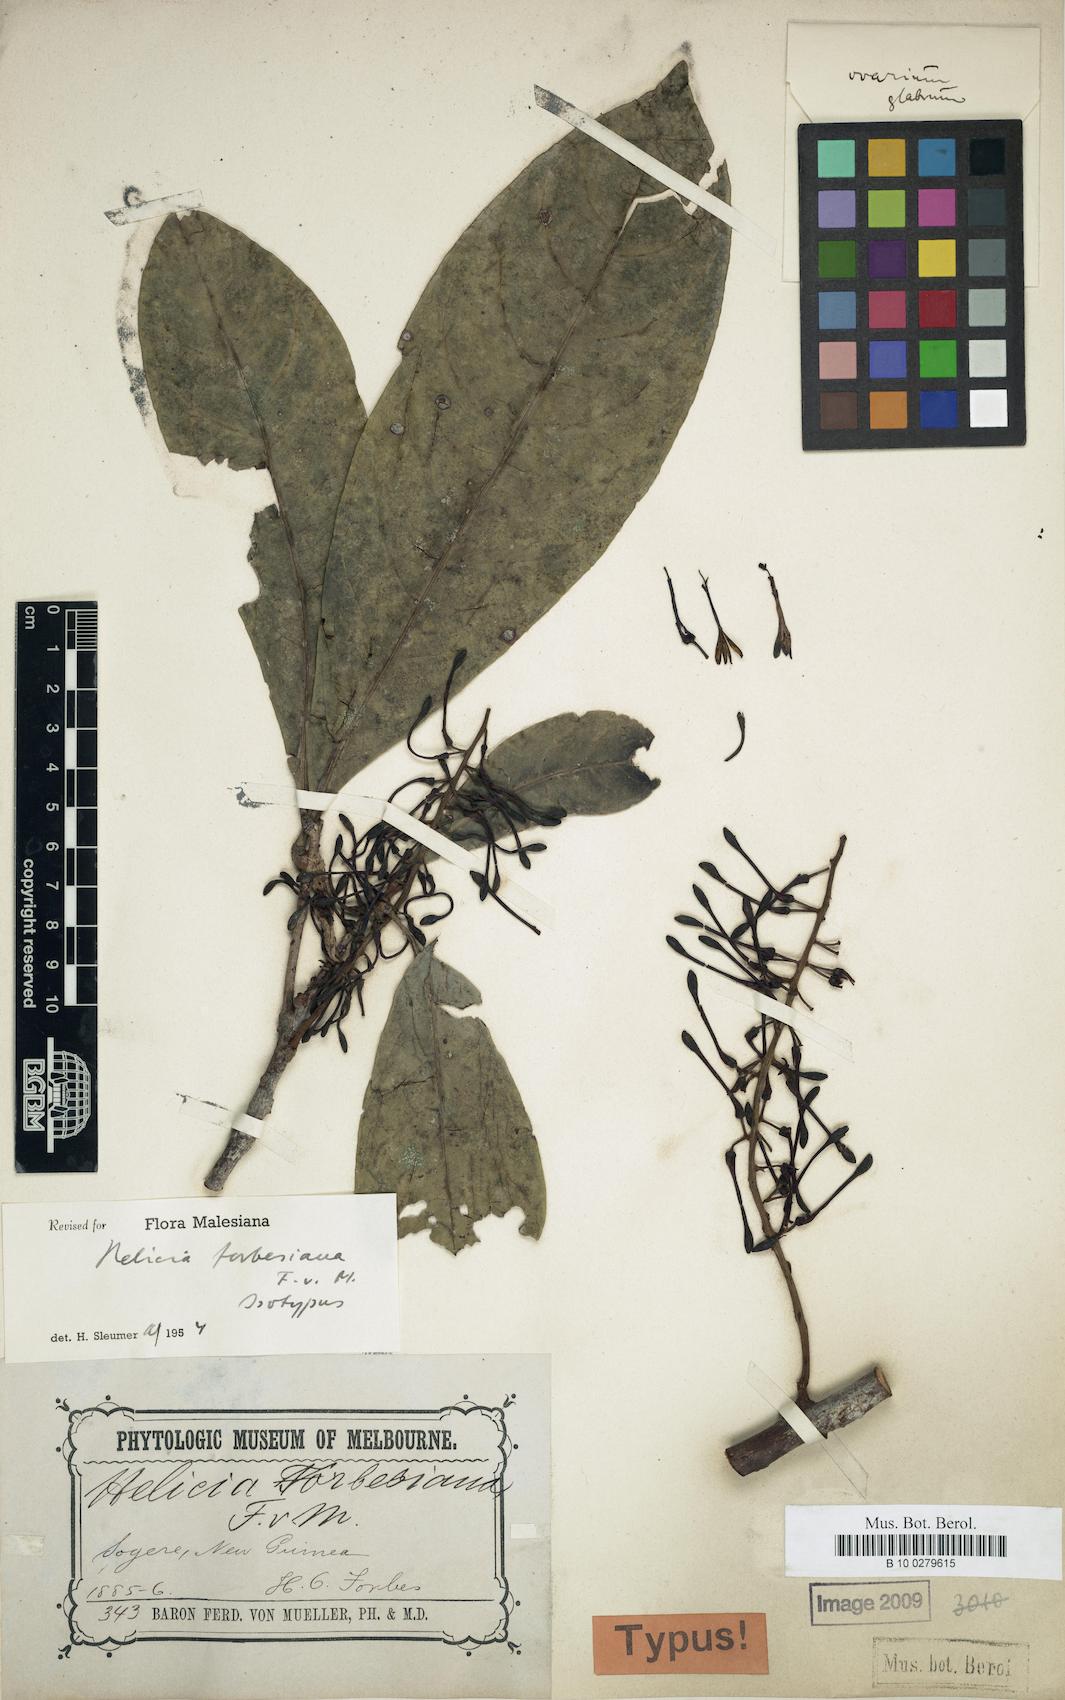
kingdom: Plantae
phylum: Tracheophyta
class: Magnoliopsida
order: Proteales
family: Proteaceae
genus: Helicia
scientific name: Helicia forbesiana
